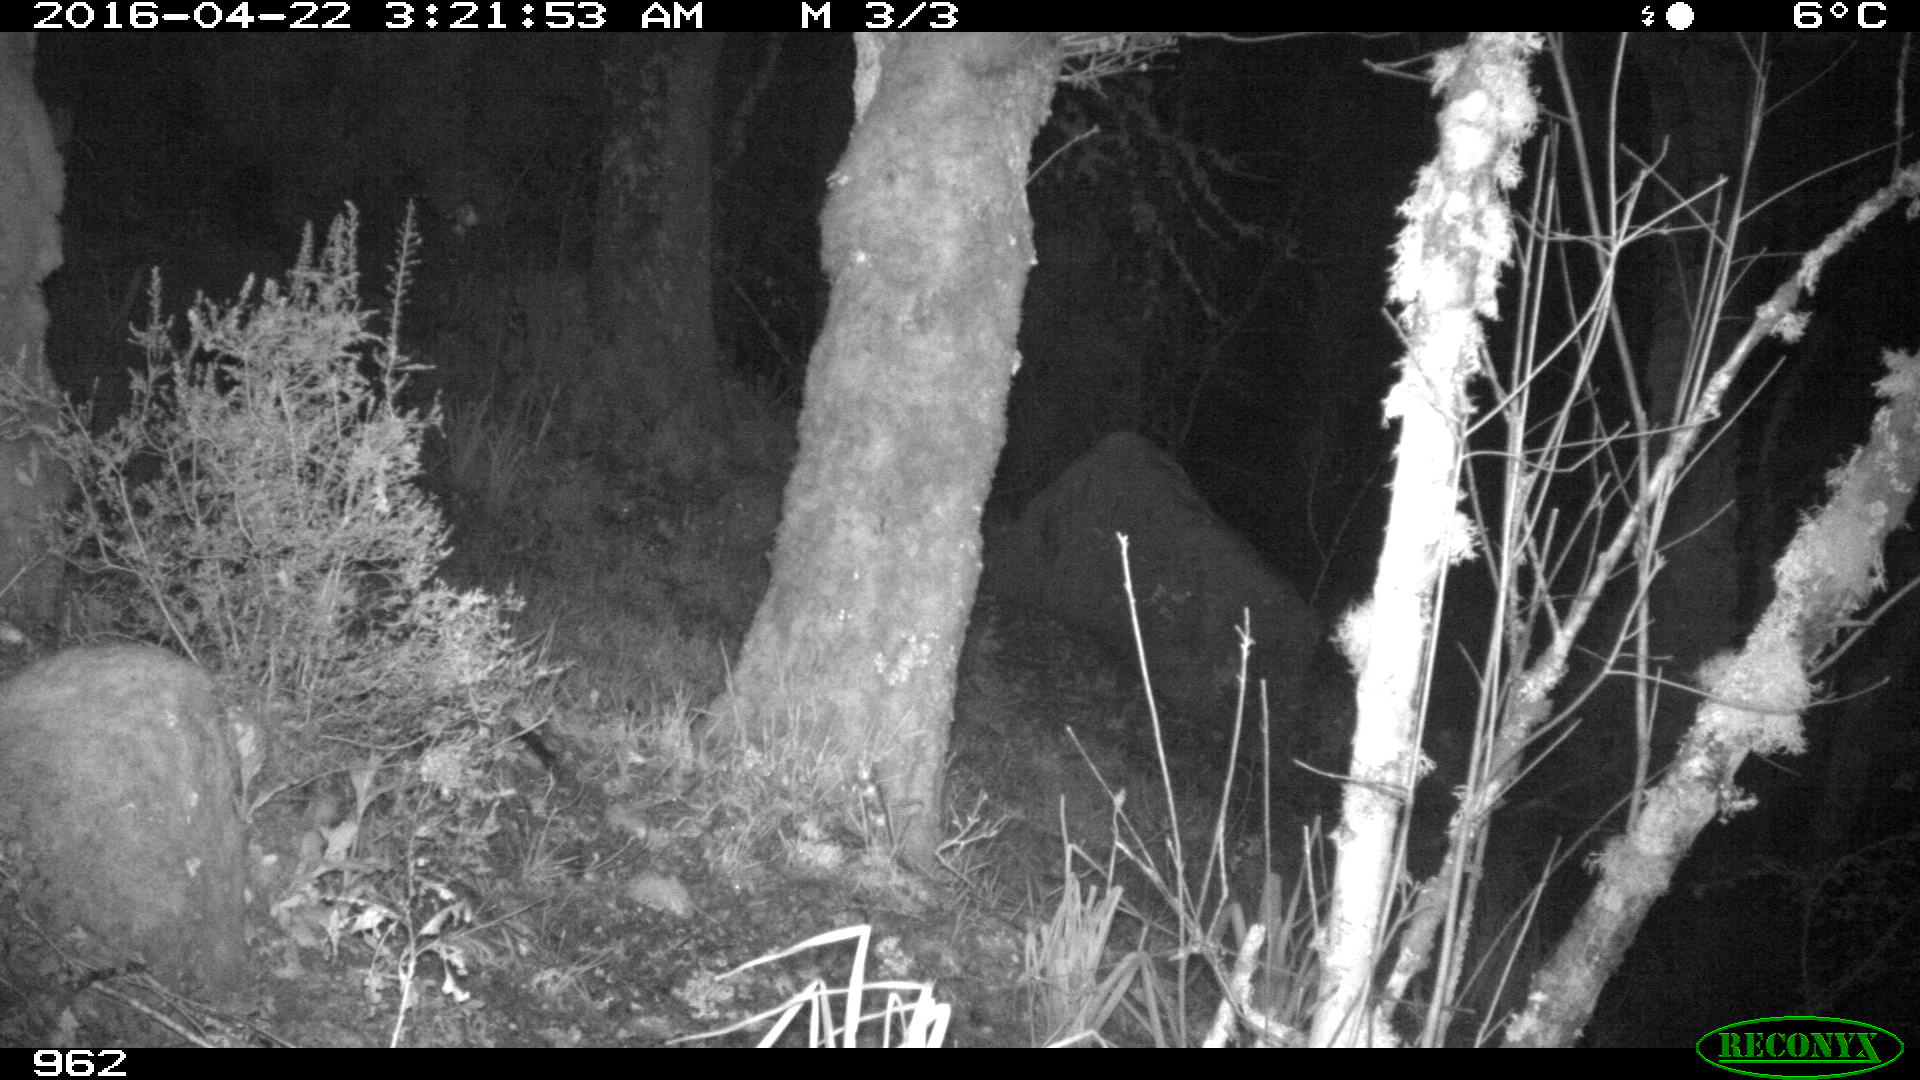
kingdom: Animalia
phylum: Chordata
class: Mammalia
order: Artiodactyla
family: Cervidae
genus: Capreolus
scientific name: Capreolus capreolus
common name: Western roe deer
